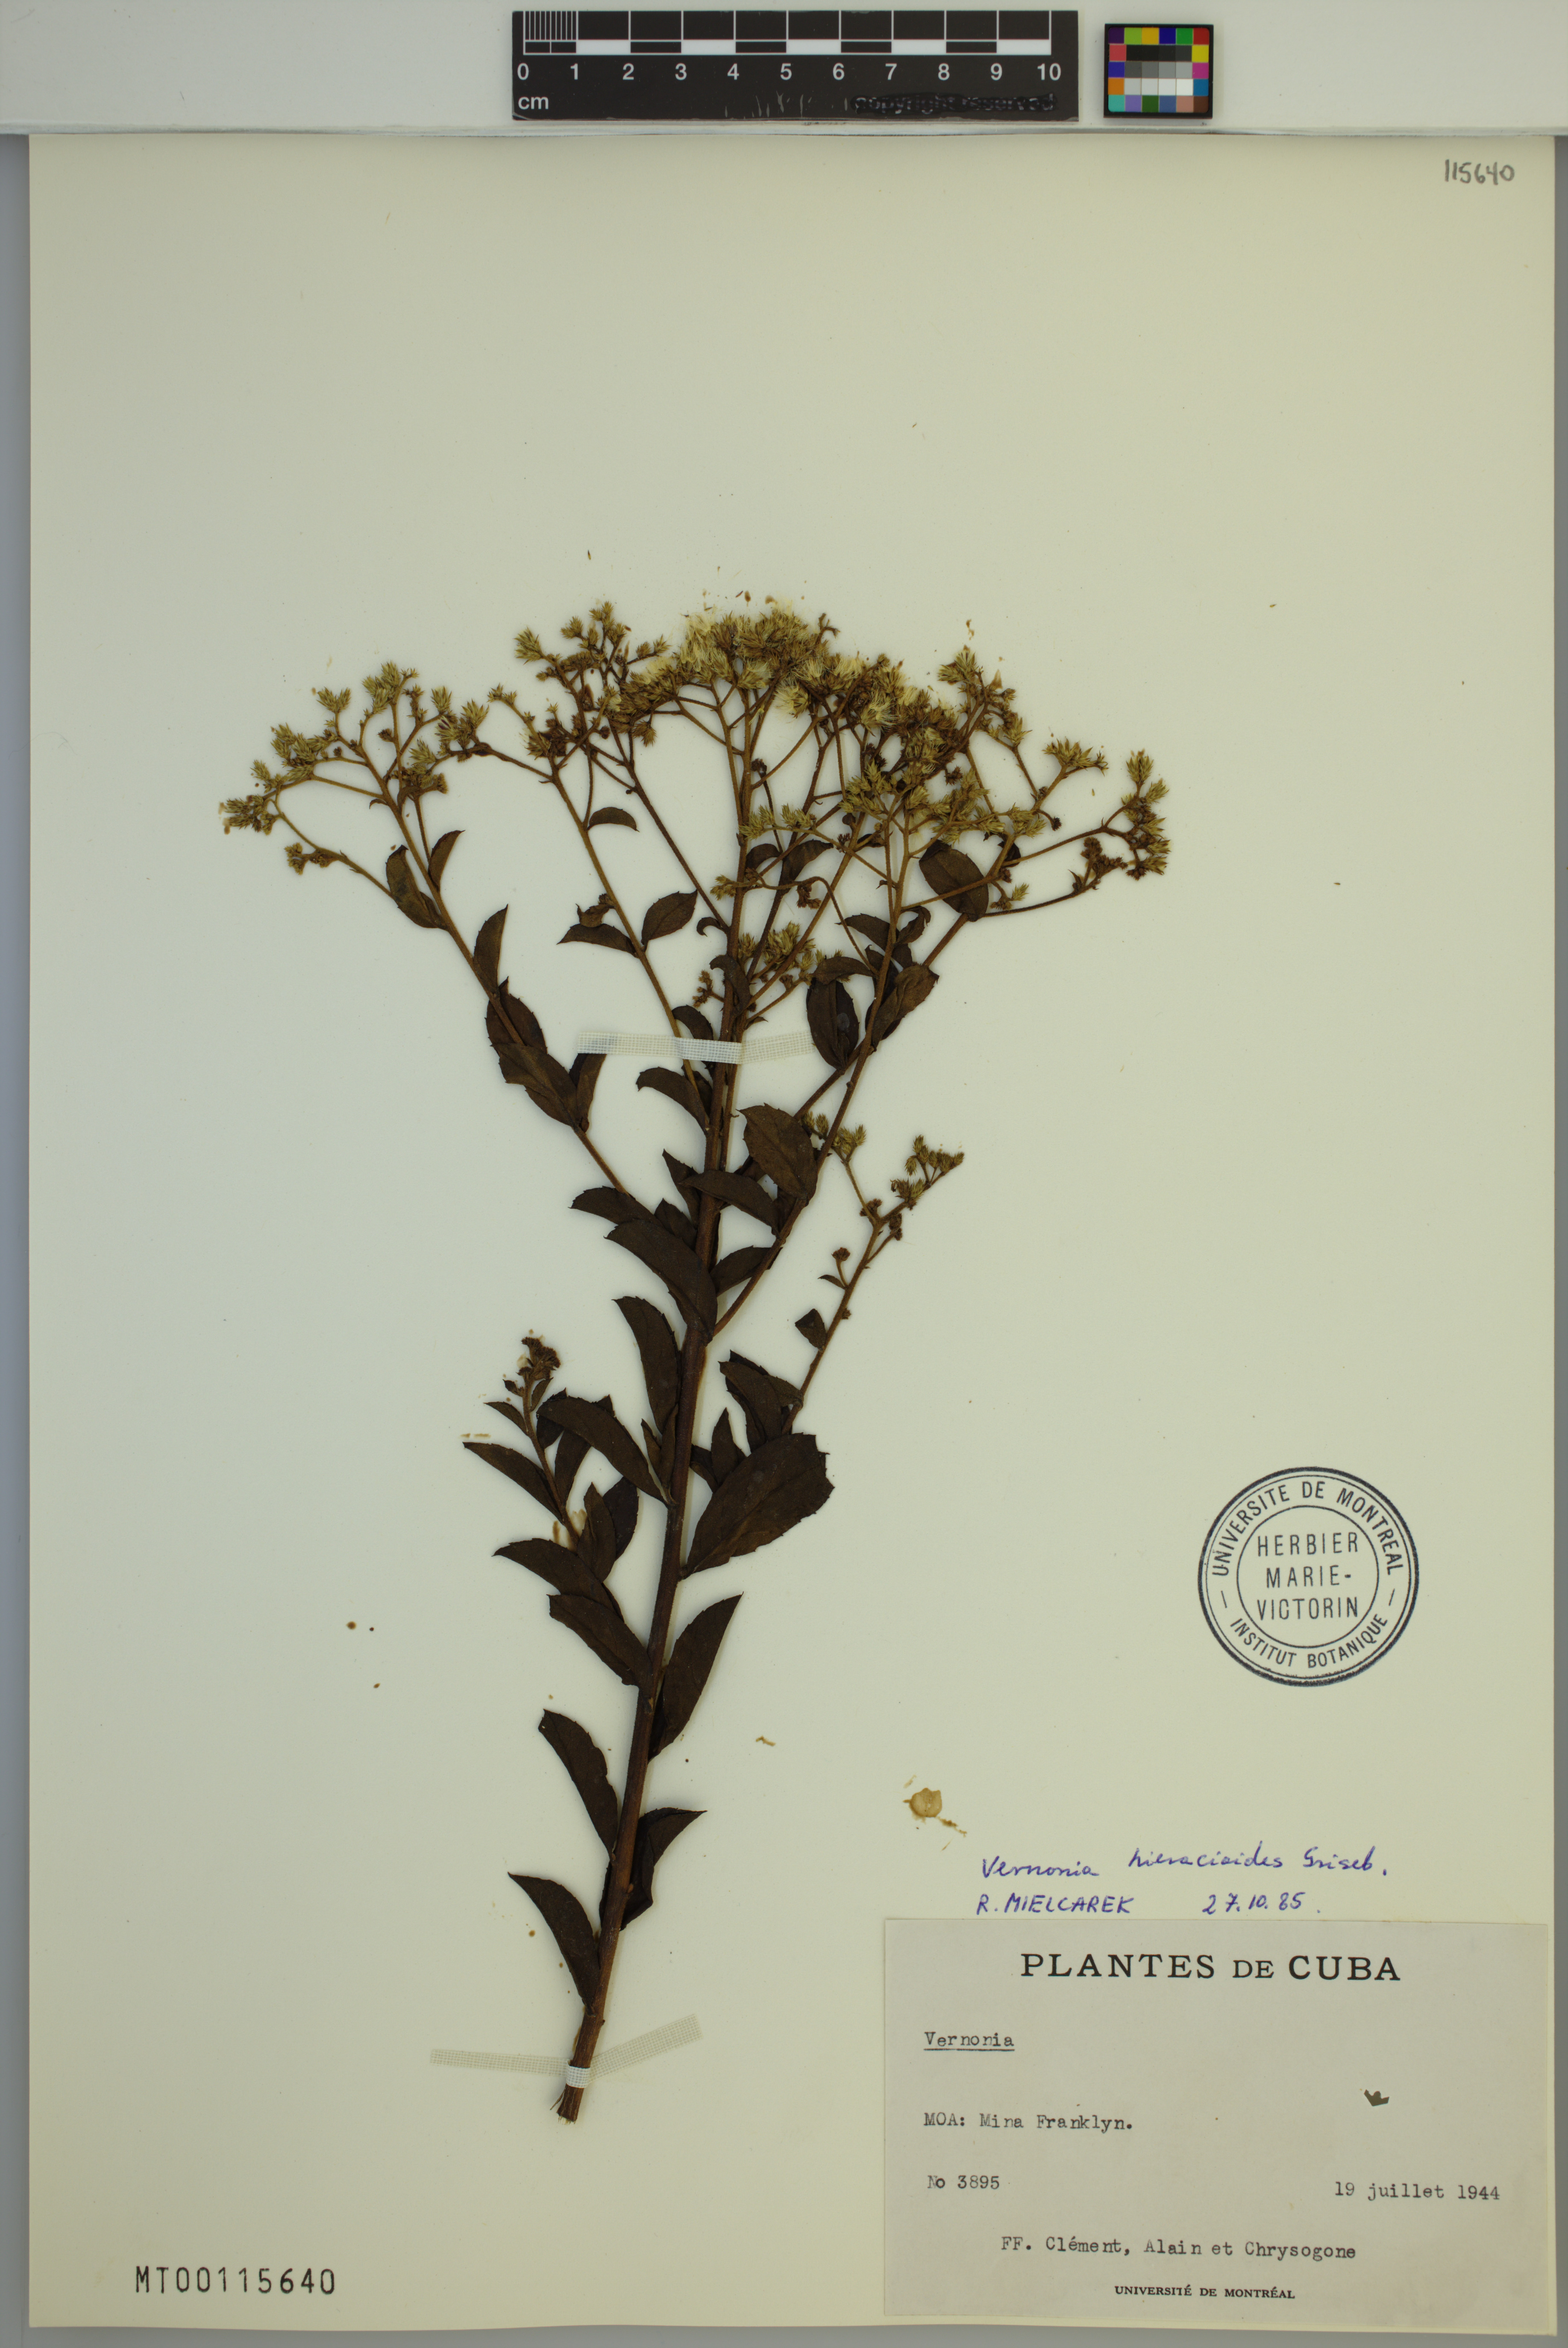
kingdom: Plantae
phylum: Tracheophyta
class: Magnoliopsida
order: Asterales
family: Asteraceae
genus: Vernonanthura
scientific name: Vernonanthura hieracioides
